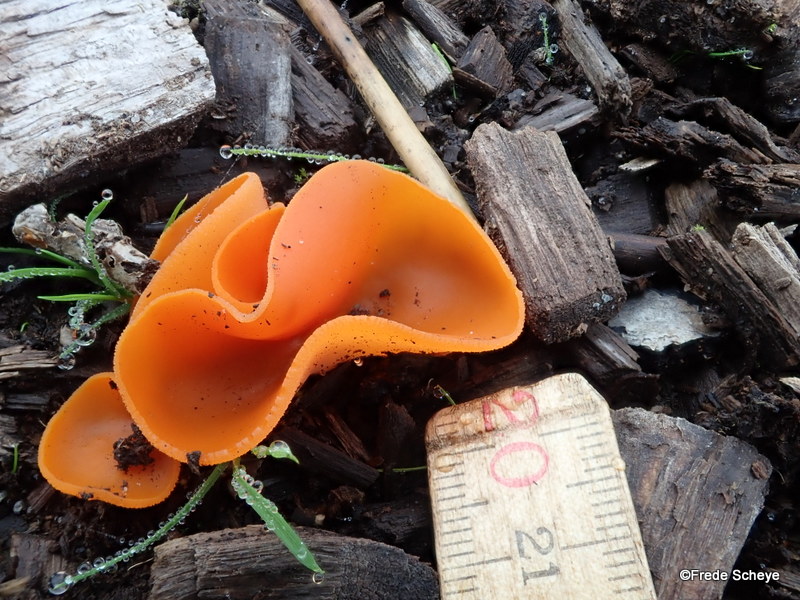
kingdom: Fungi
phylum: Ascomycota
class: Pezizomycetes
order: Pezizales
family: Pyronemataceae
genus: Aleuria
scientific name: Aleuria aurantia
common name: almindelig orangebæger
